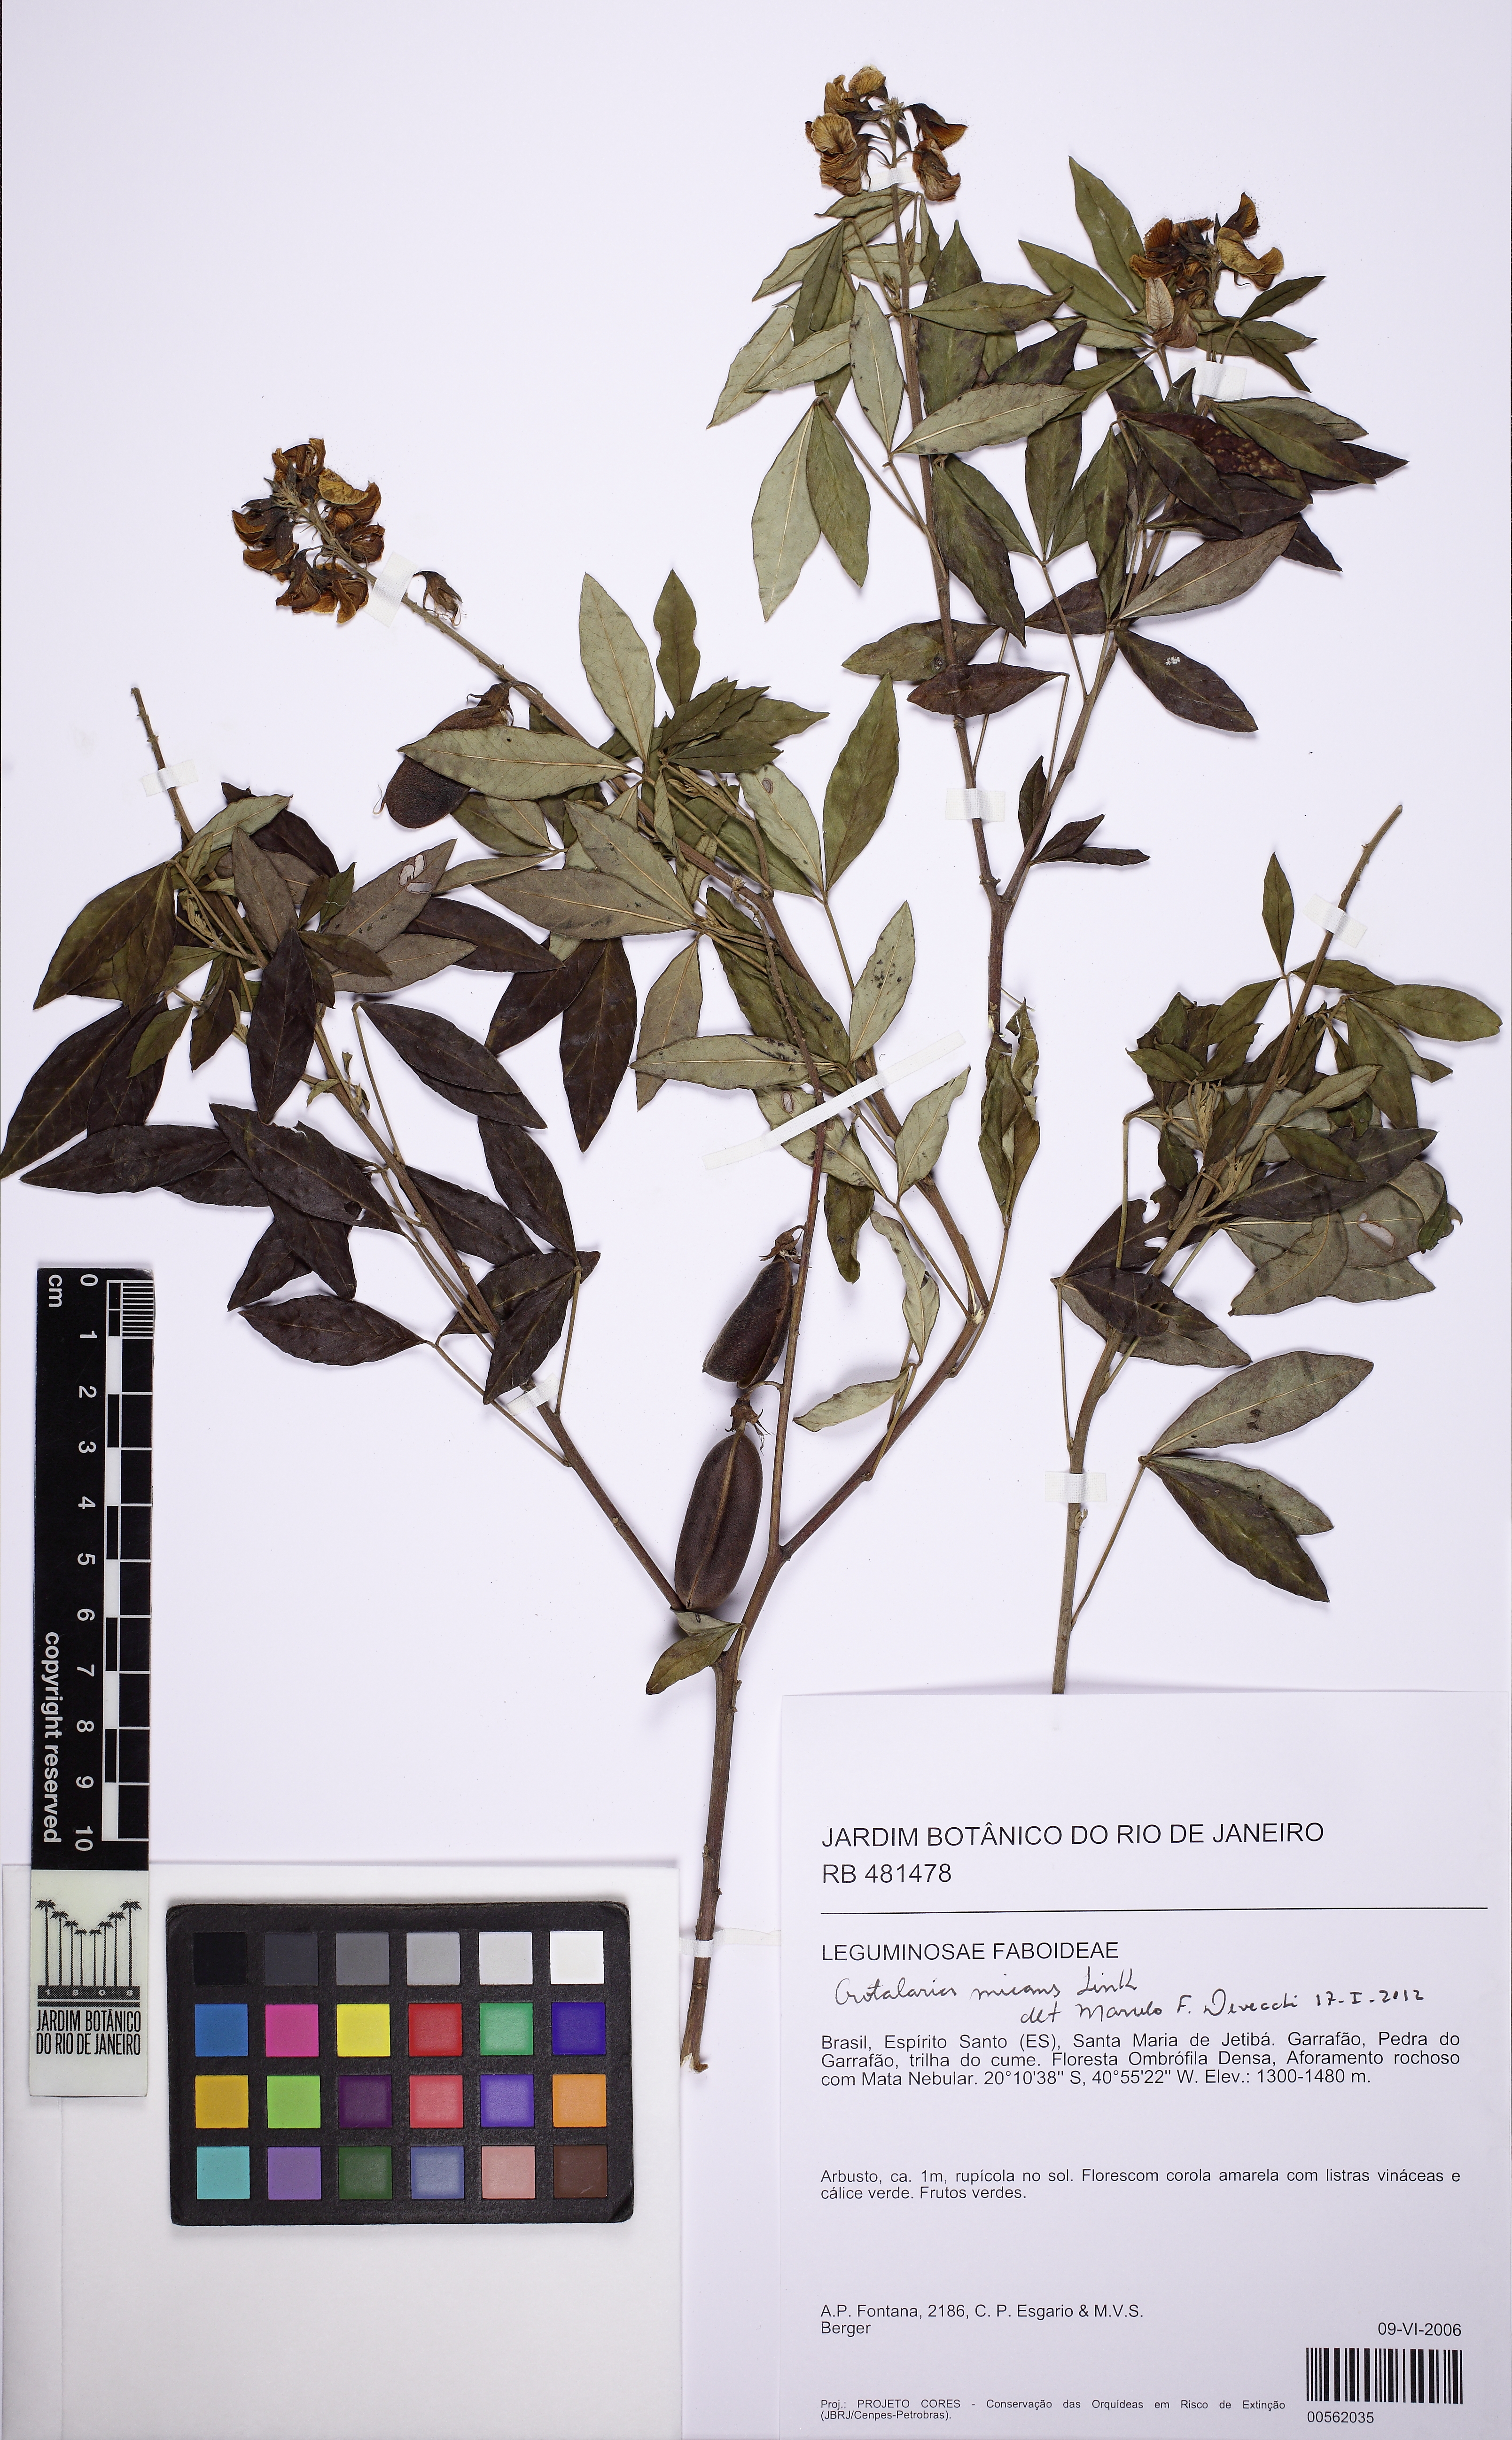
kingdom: Plantae
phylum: Tracheophyta
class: Magnoliopsida
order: Fabales
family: Fabaceae
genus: Crotalaria
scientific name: Crotalaria micans
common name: Caracas rattlebox
